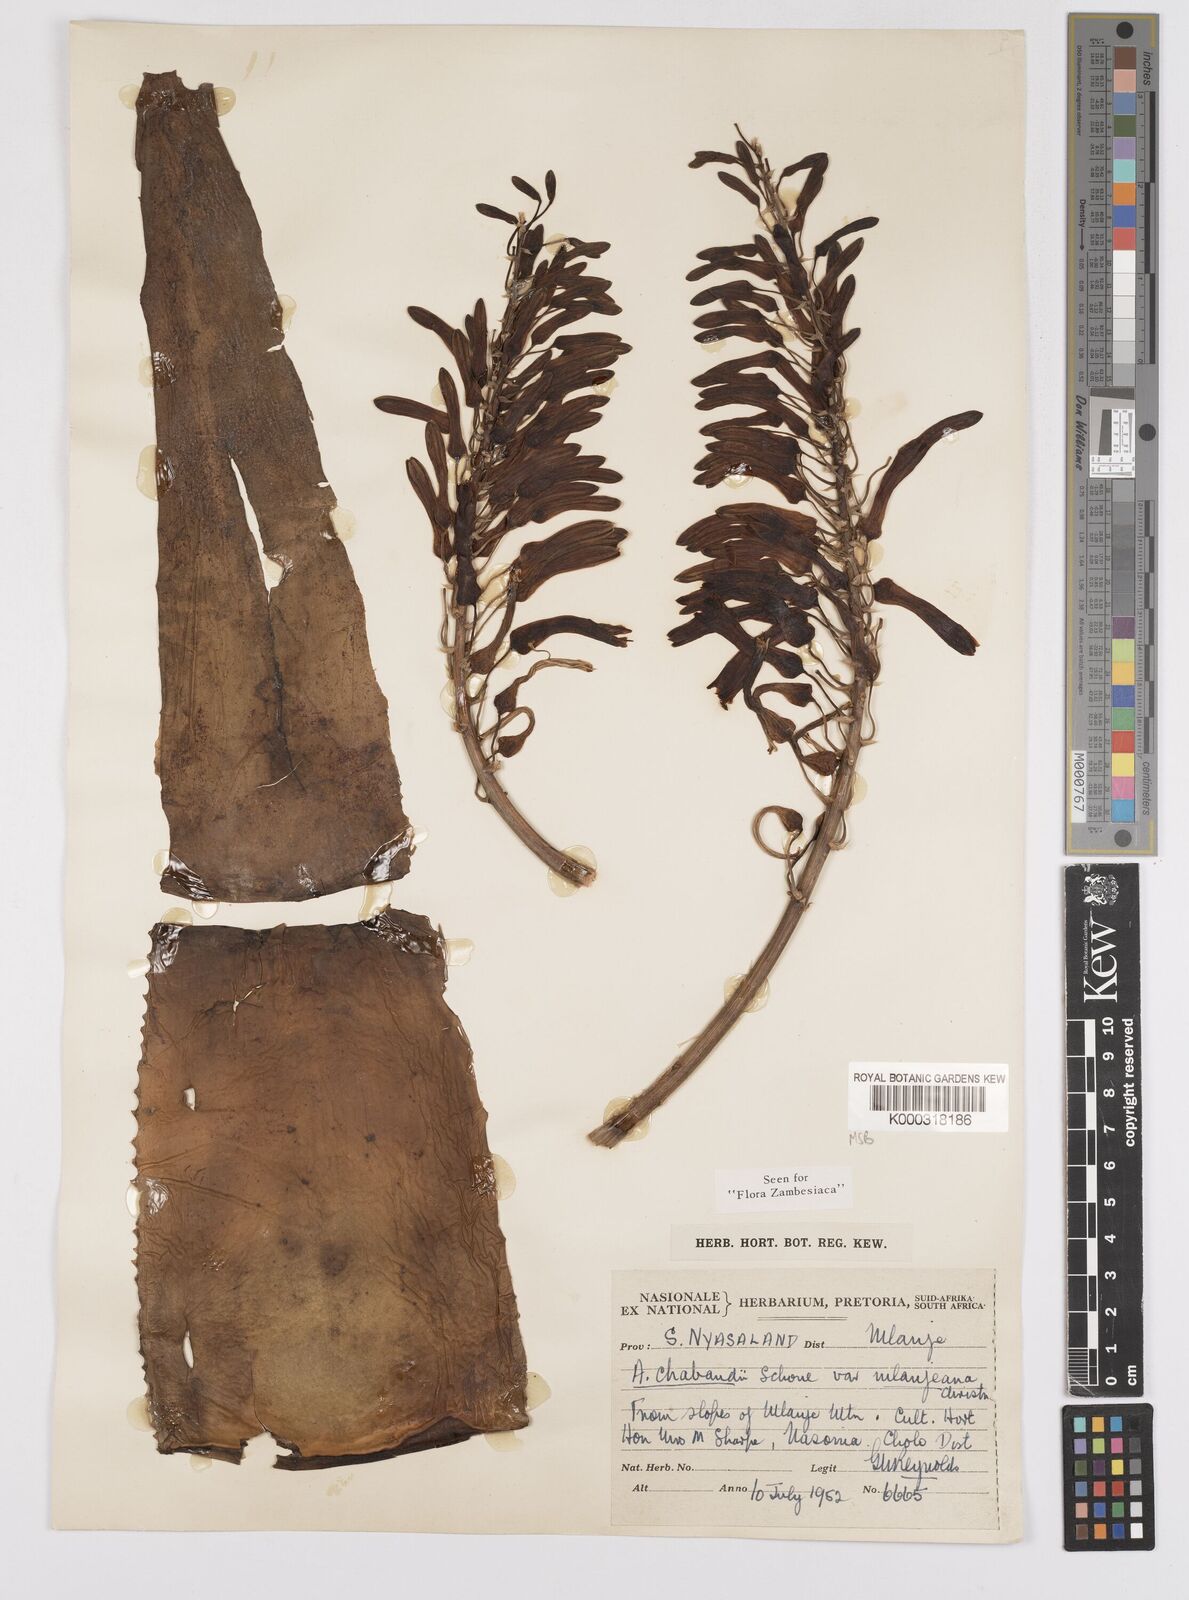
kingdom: Plantae
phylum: Tracheophyta
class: Liliopsida
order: Asparagales
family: Asphodelaceae
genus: Aloe
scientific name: Aloe chabaudii
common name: Chabaud's aloe
